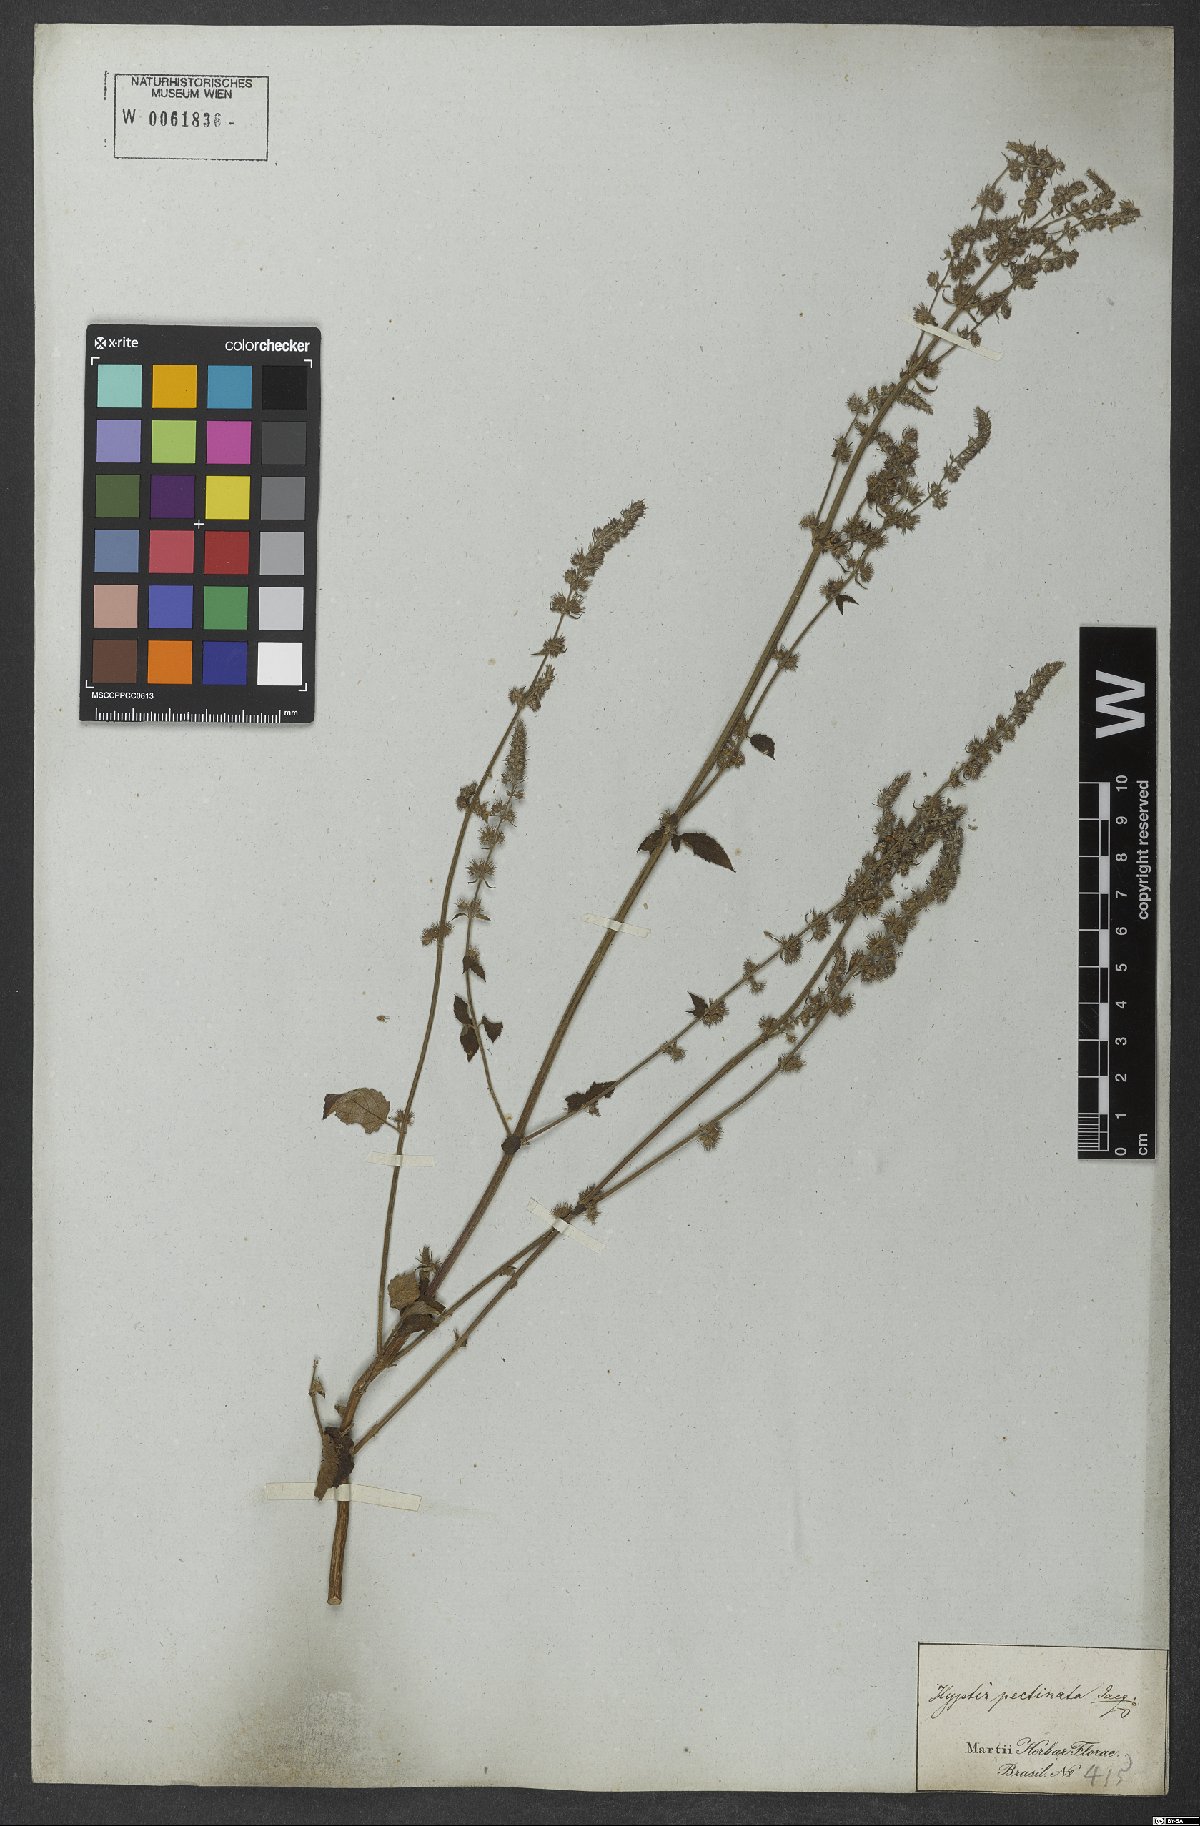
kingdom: Plantae
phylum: Tracheophyta
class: Magnoliopsida
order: Lamiales
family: Lamiaceae
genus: Mesosphaerum
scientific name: Mesosphaerum pectinatum
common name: Comb hyptis
